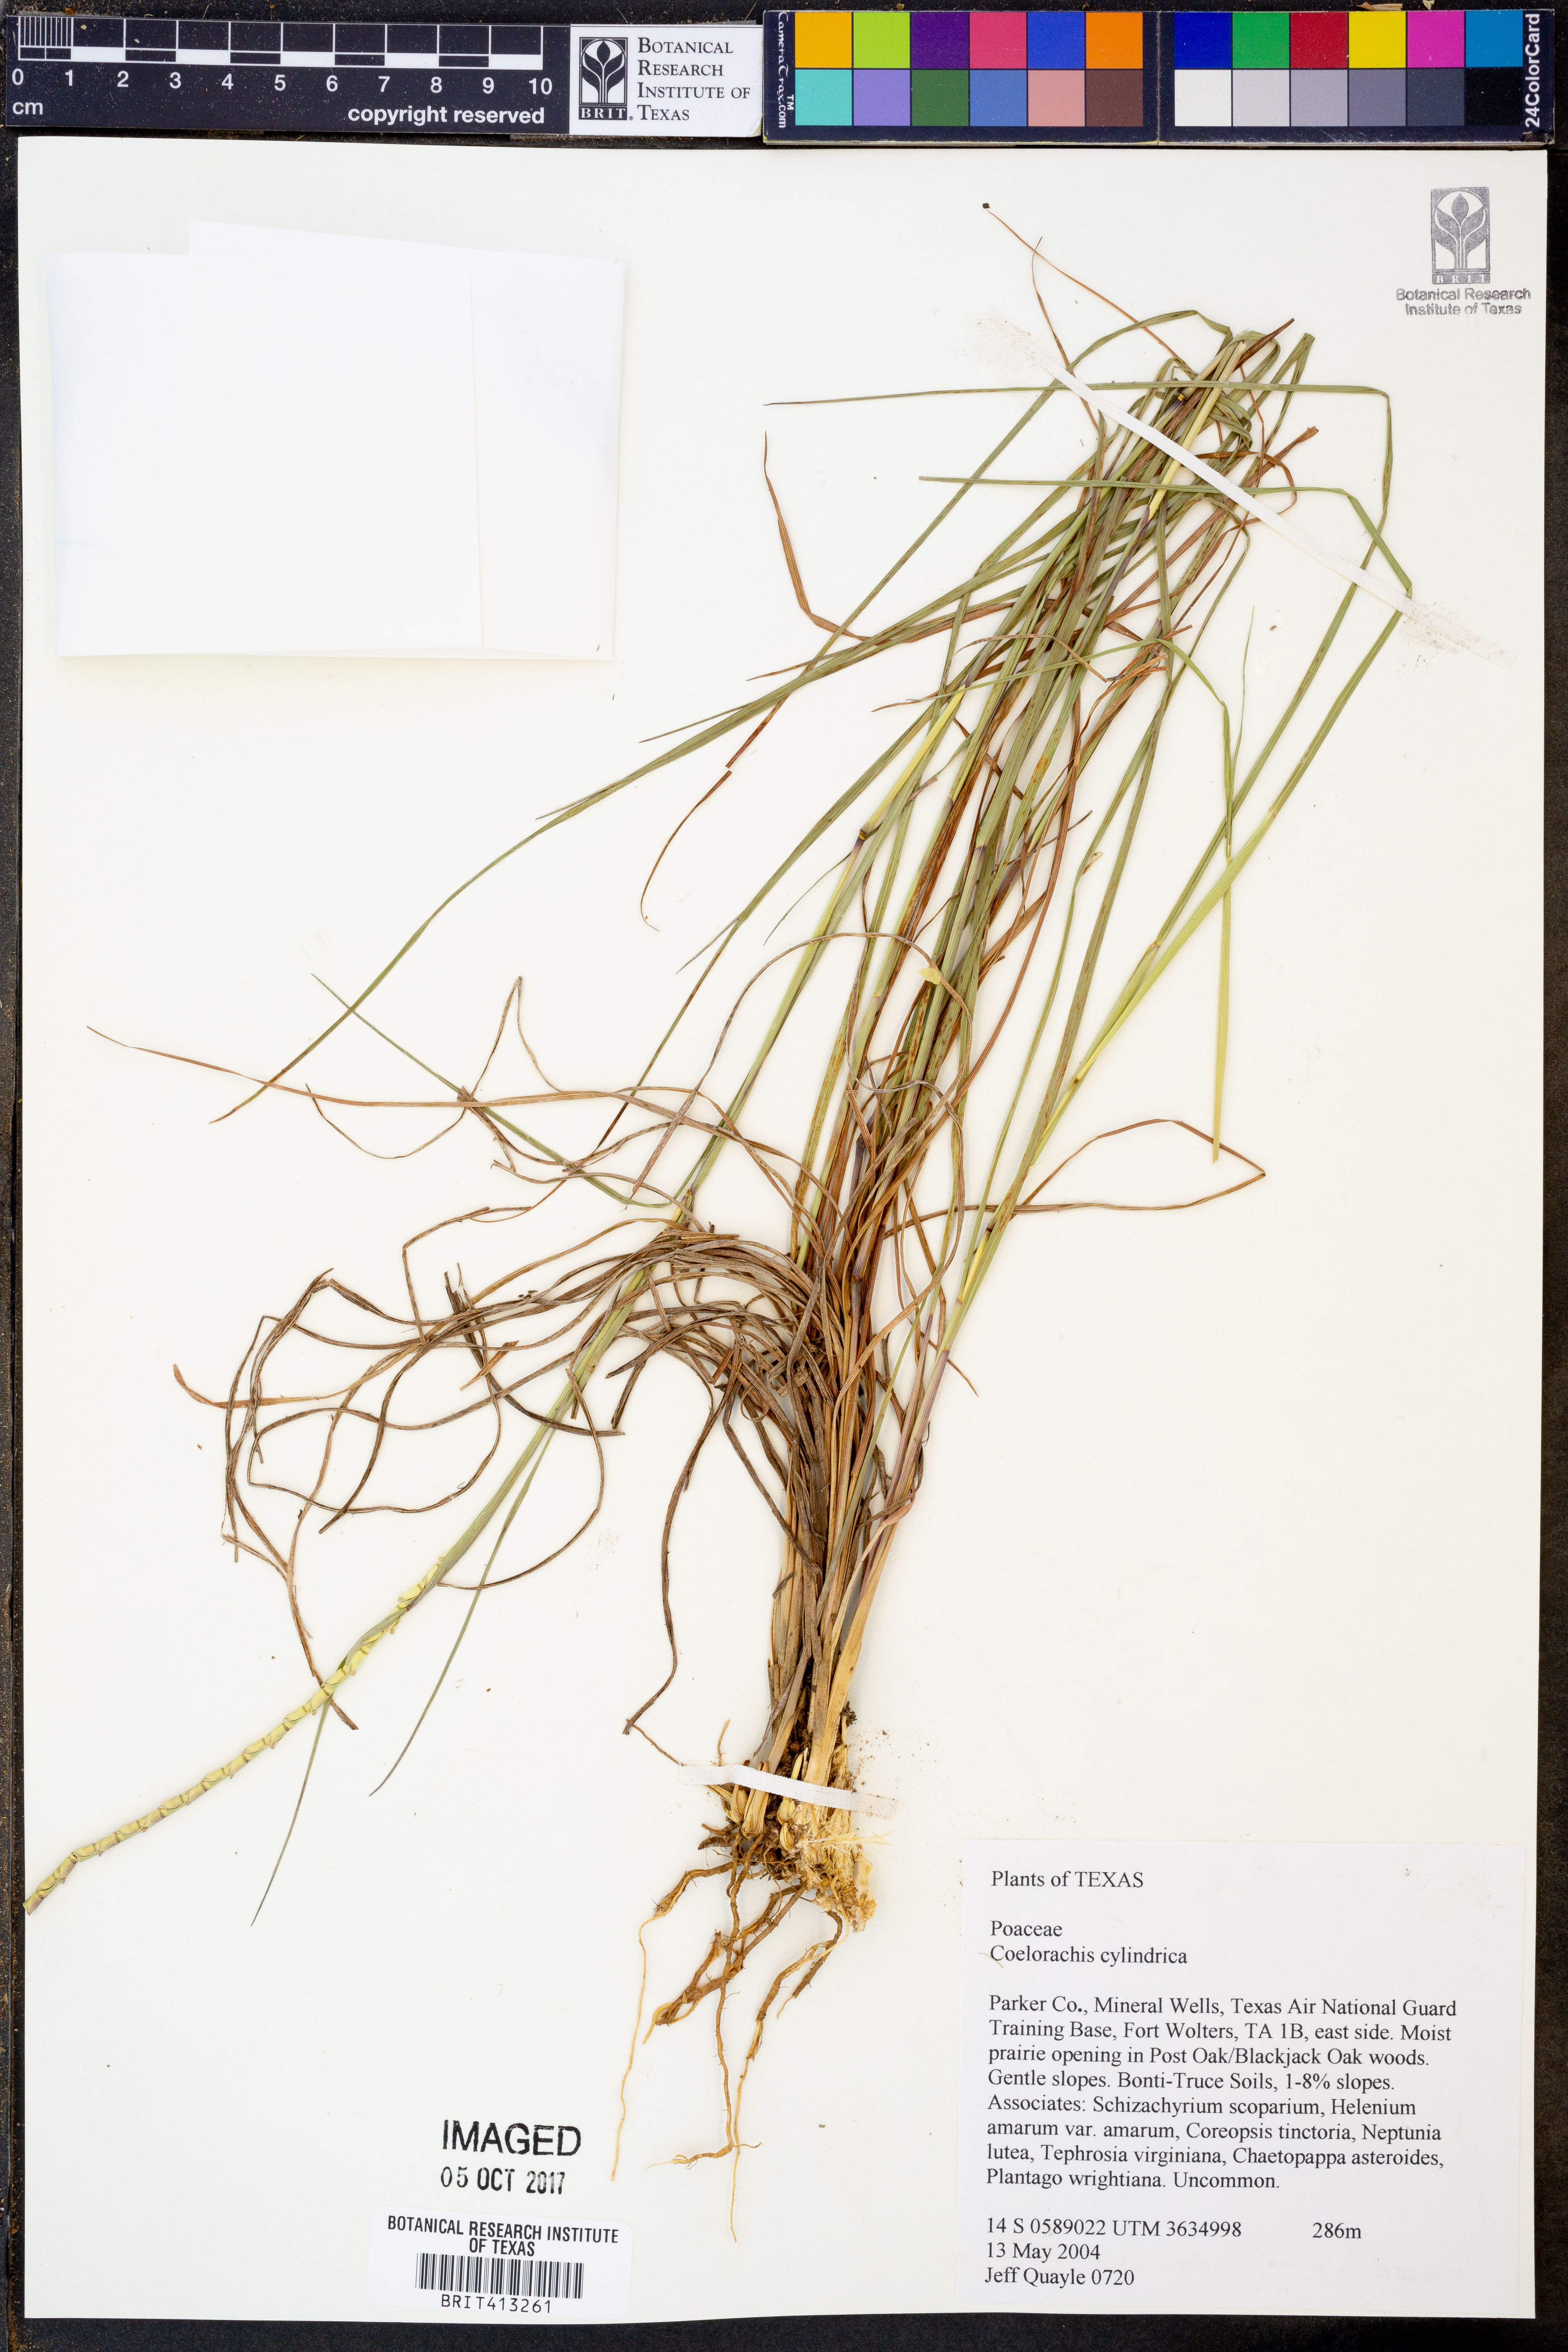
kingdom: Plantae
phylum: Tracheophyta
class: Liliopsida
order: Poales
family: Poaceae
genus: Rottboellia
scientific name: Rottboellia campestris
